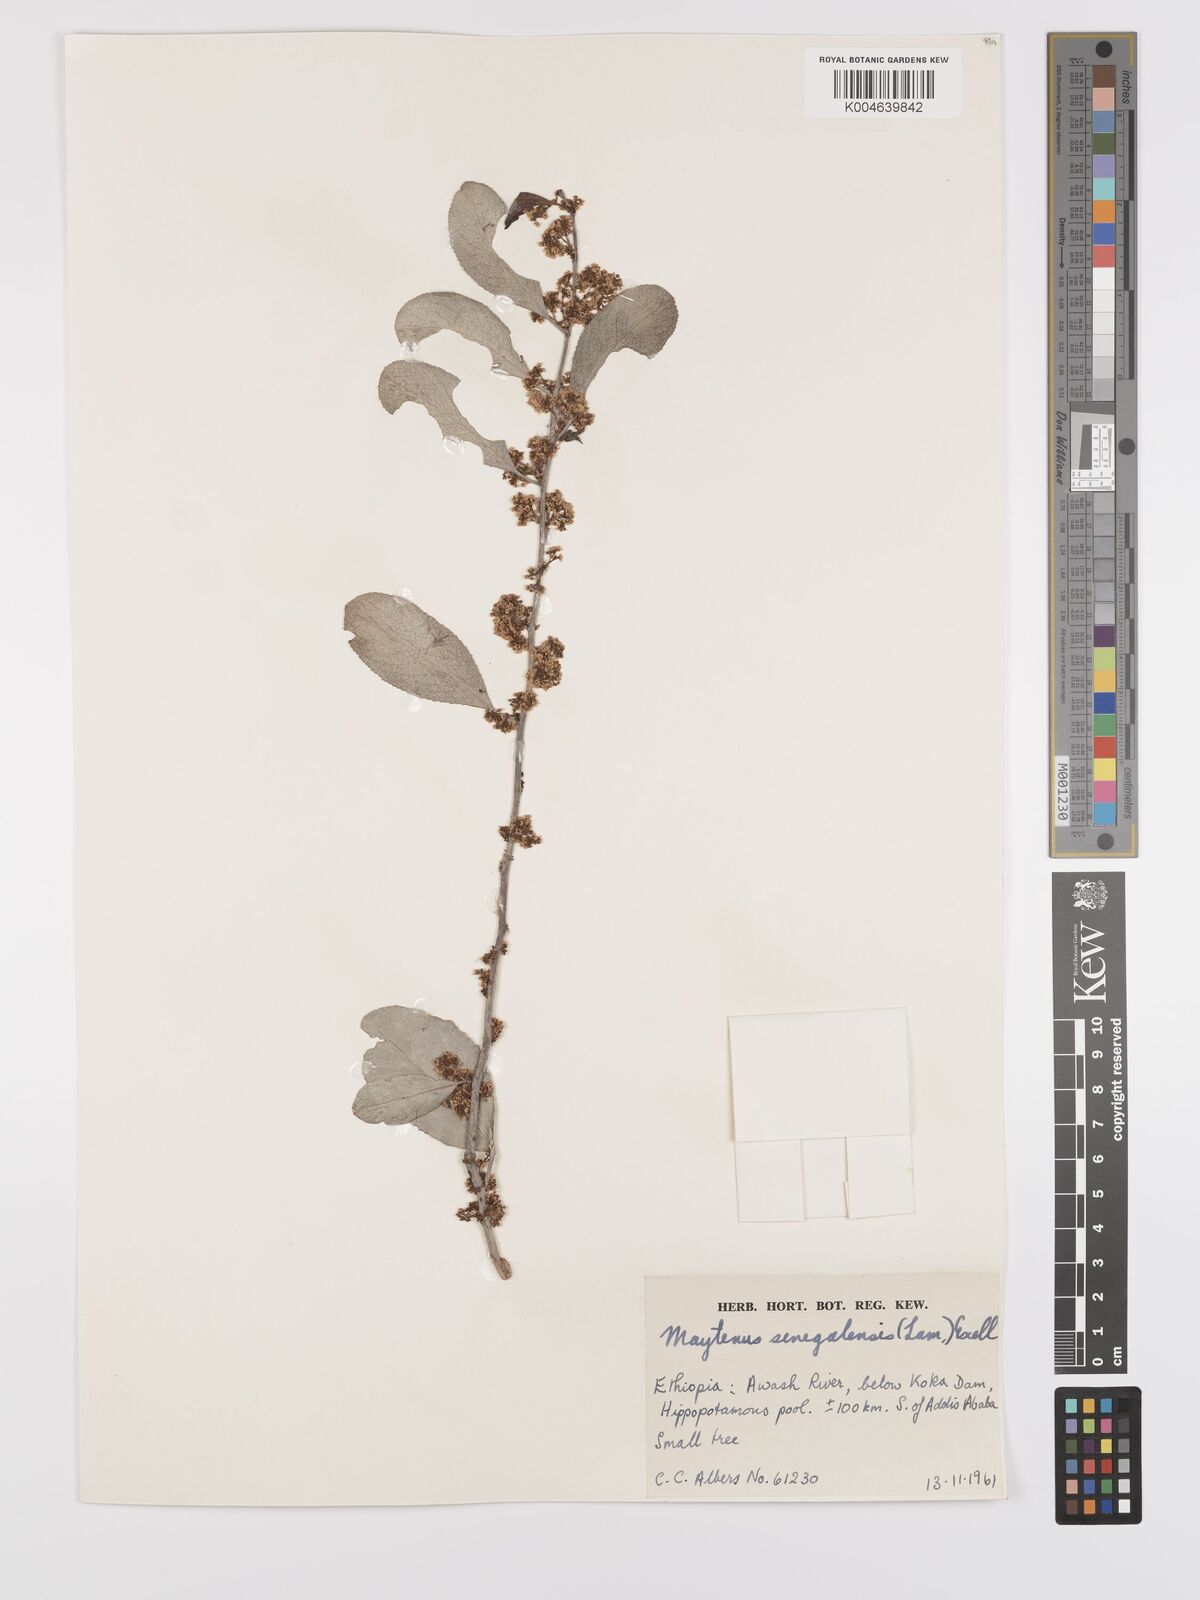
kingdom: Plantae
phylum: Tracheophyta
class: Magnoliopsida
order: Celastrales
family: Celastraceae
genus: Gymnosporia
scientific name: Gymnosporia senegalensis
